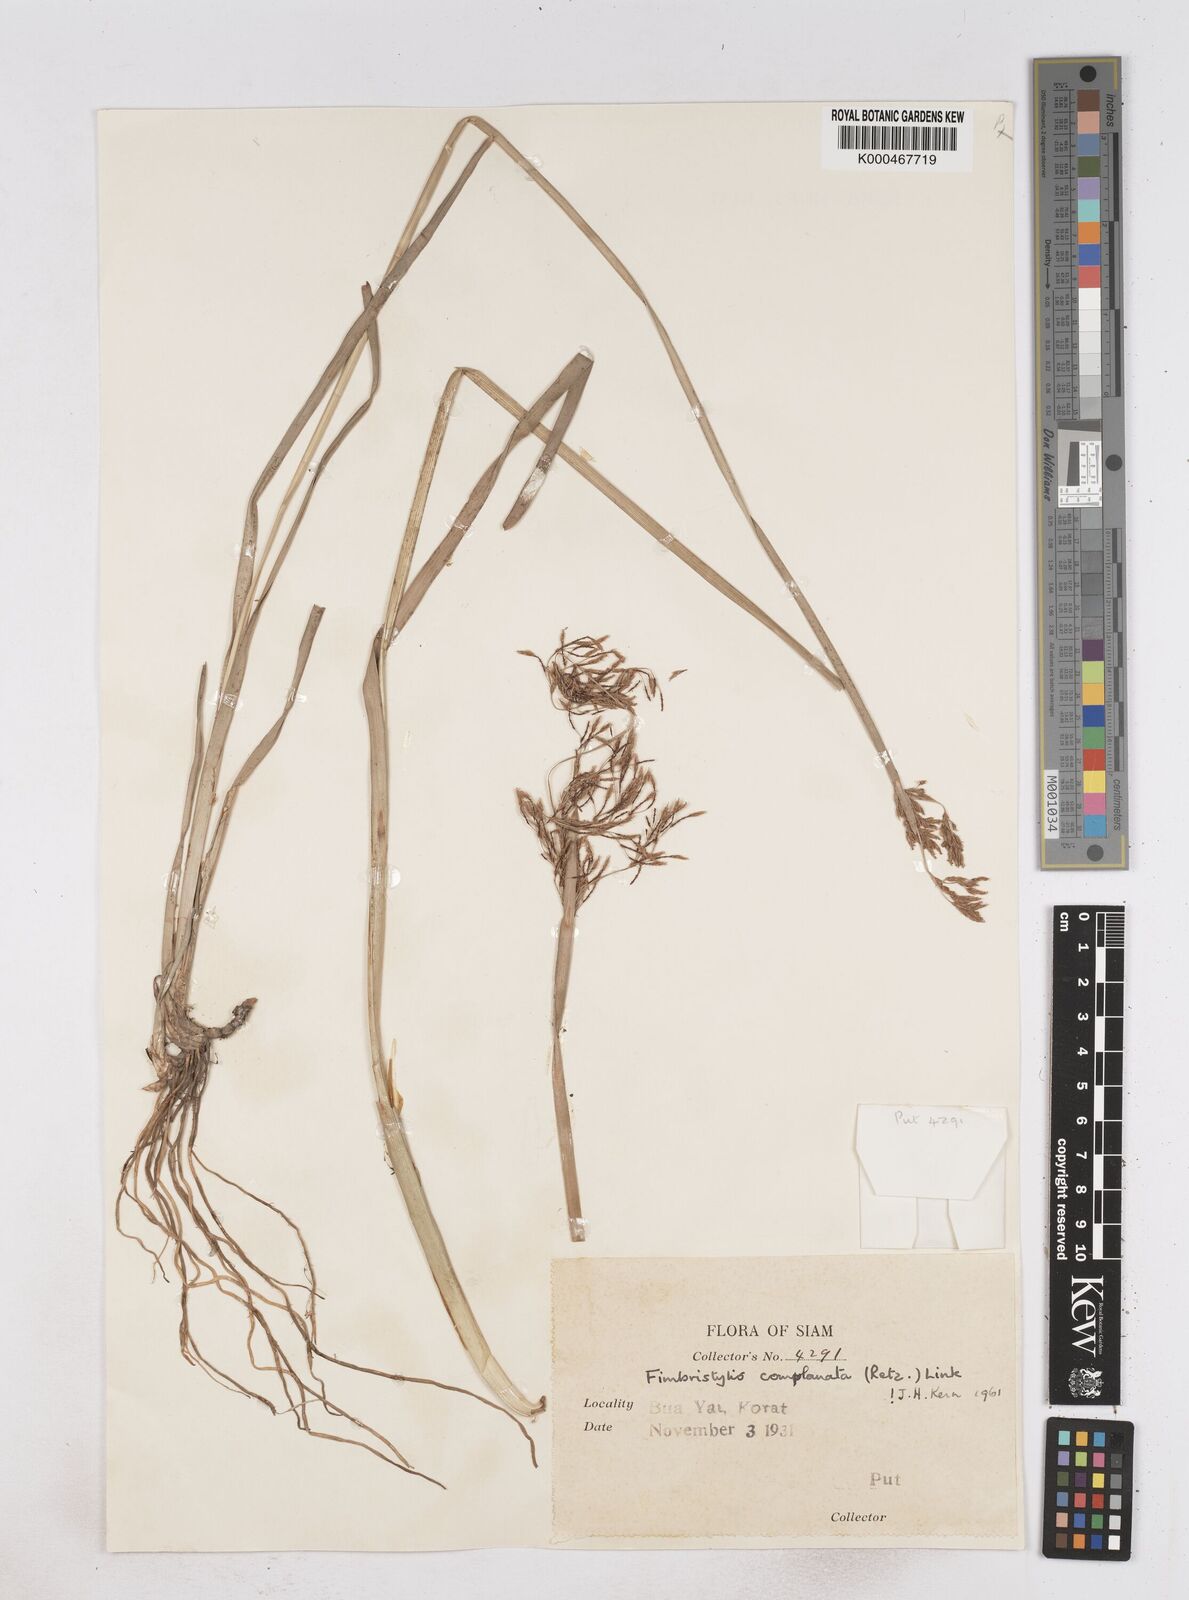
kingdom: Plantae
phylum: Tracheophyta
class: Liliopsida
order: Poales
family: Cyperaceae
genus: Fimbristylis
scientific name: Fimbristylis complanata
